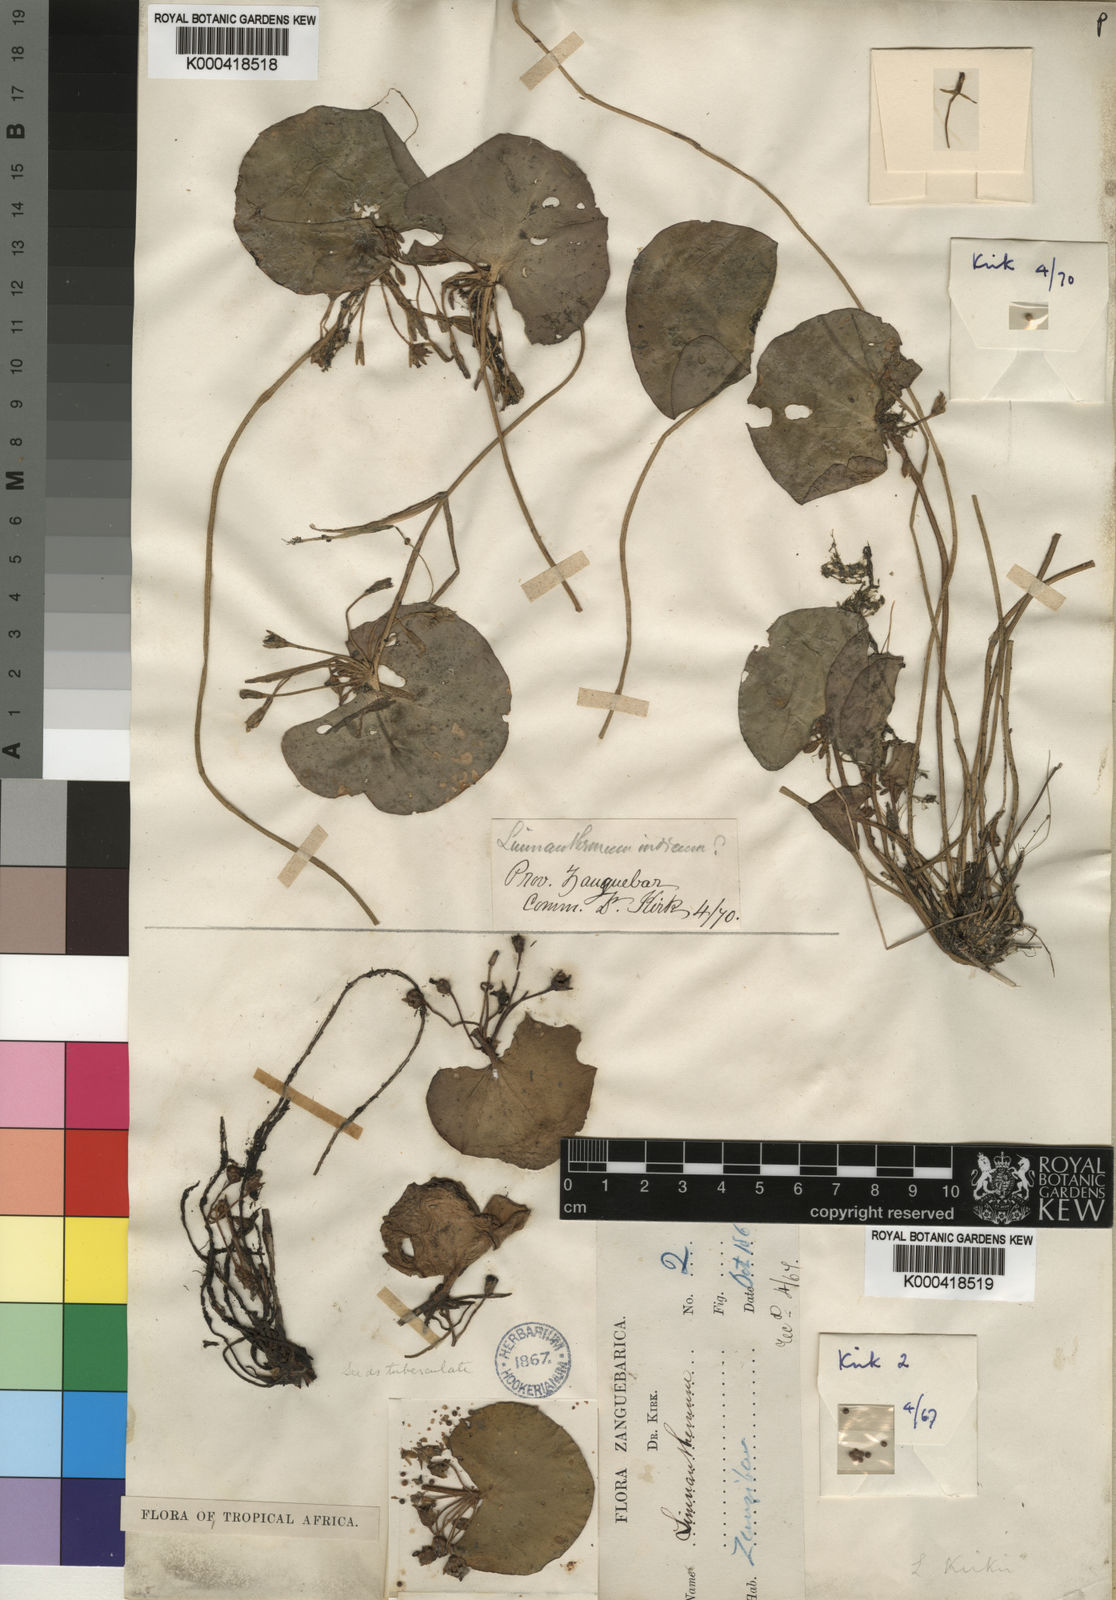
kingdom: Plantae
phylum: Tracheophyta
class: Magnoliopsida
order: Asterales
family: Menyanthaceae
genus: Nymphoides
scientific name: Nymphoides indica
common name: Water-snowflake
